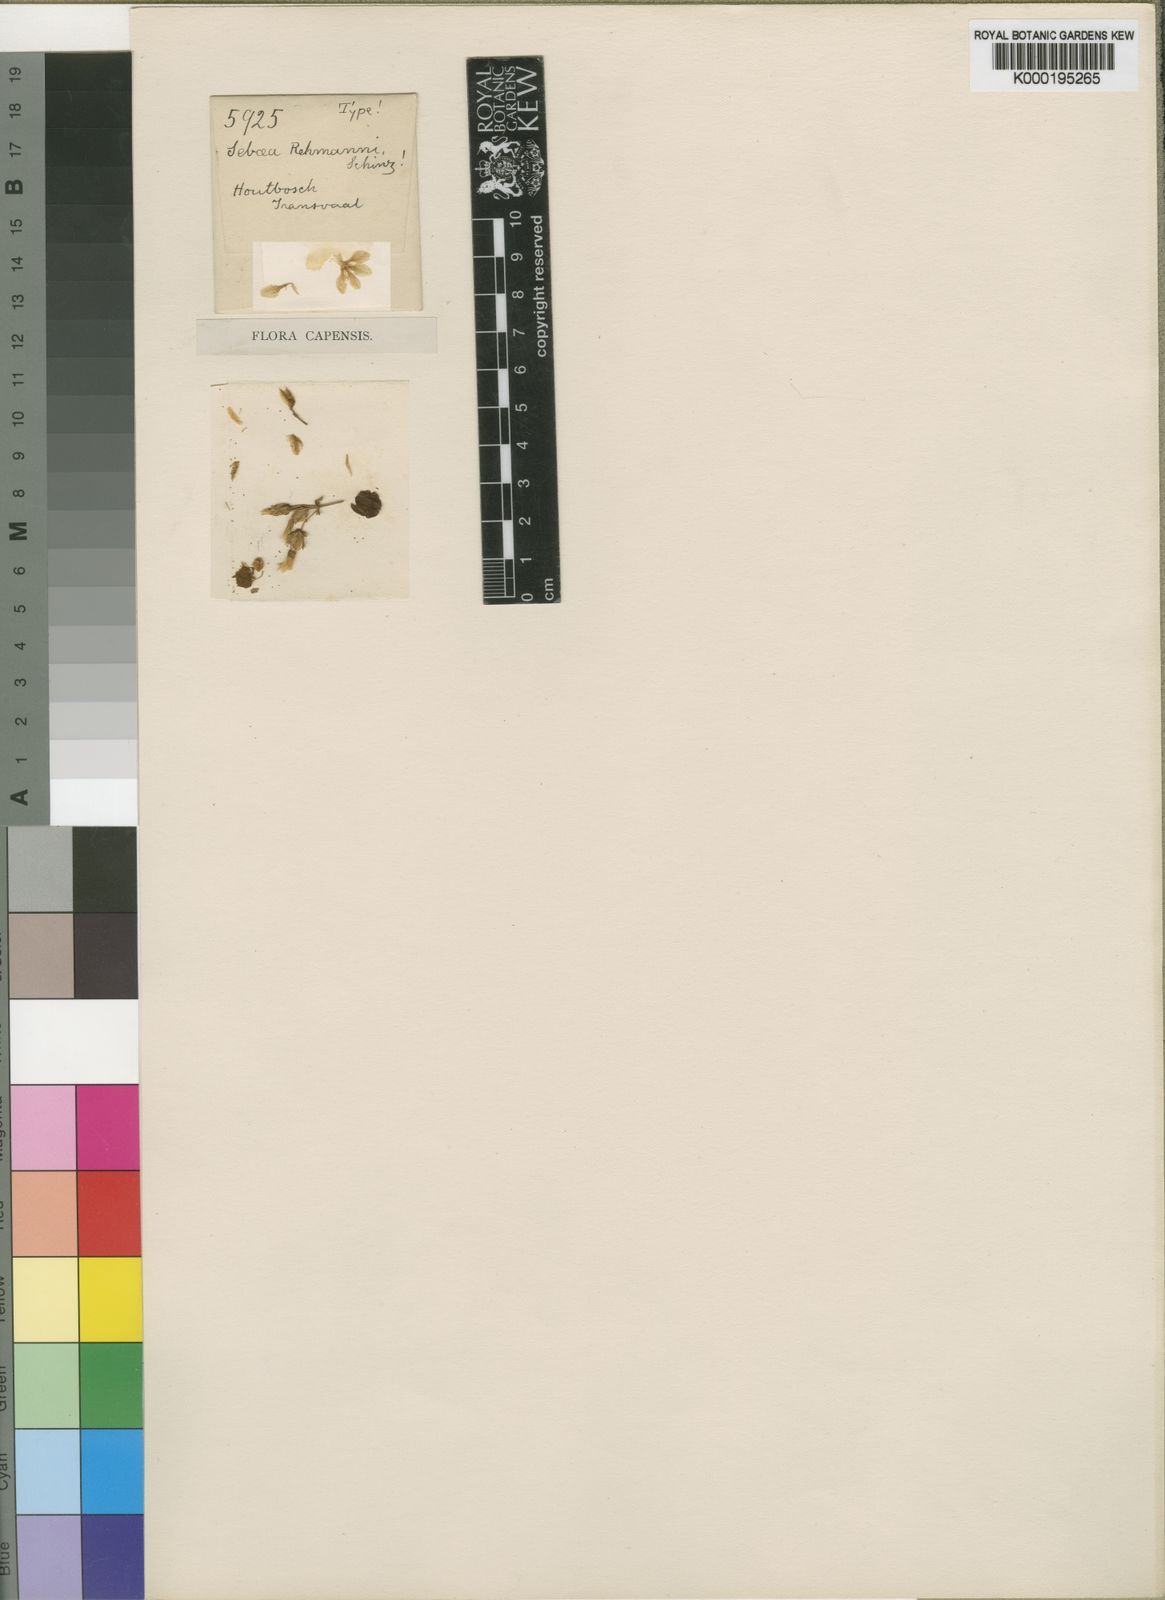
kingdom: Plantae
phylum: Tracheophyta
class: Magnoliopsida
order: Gentianales
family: Gentianaceae
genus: Sebaea
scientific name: Sebaea rehmannii
